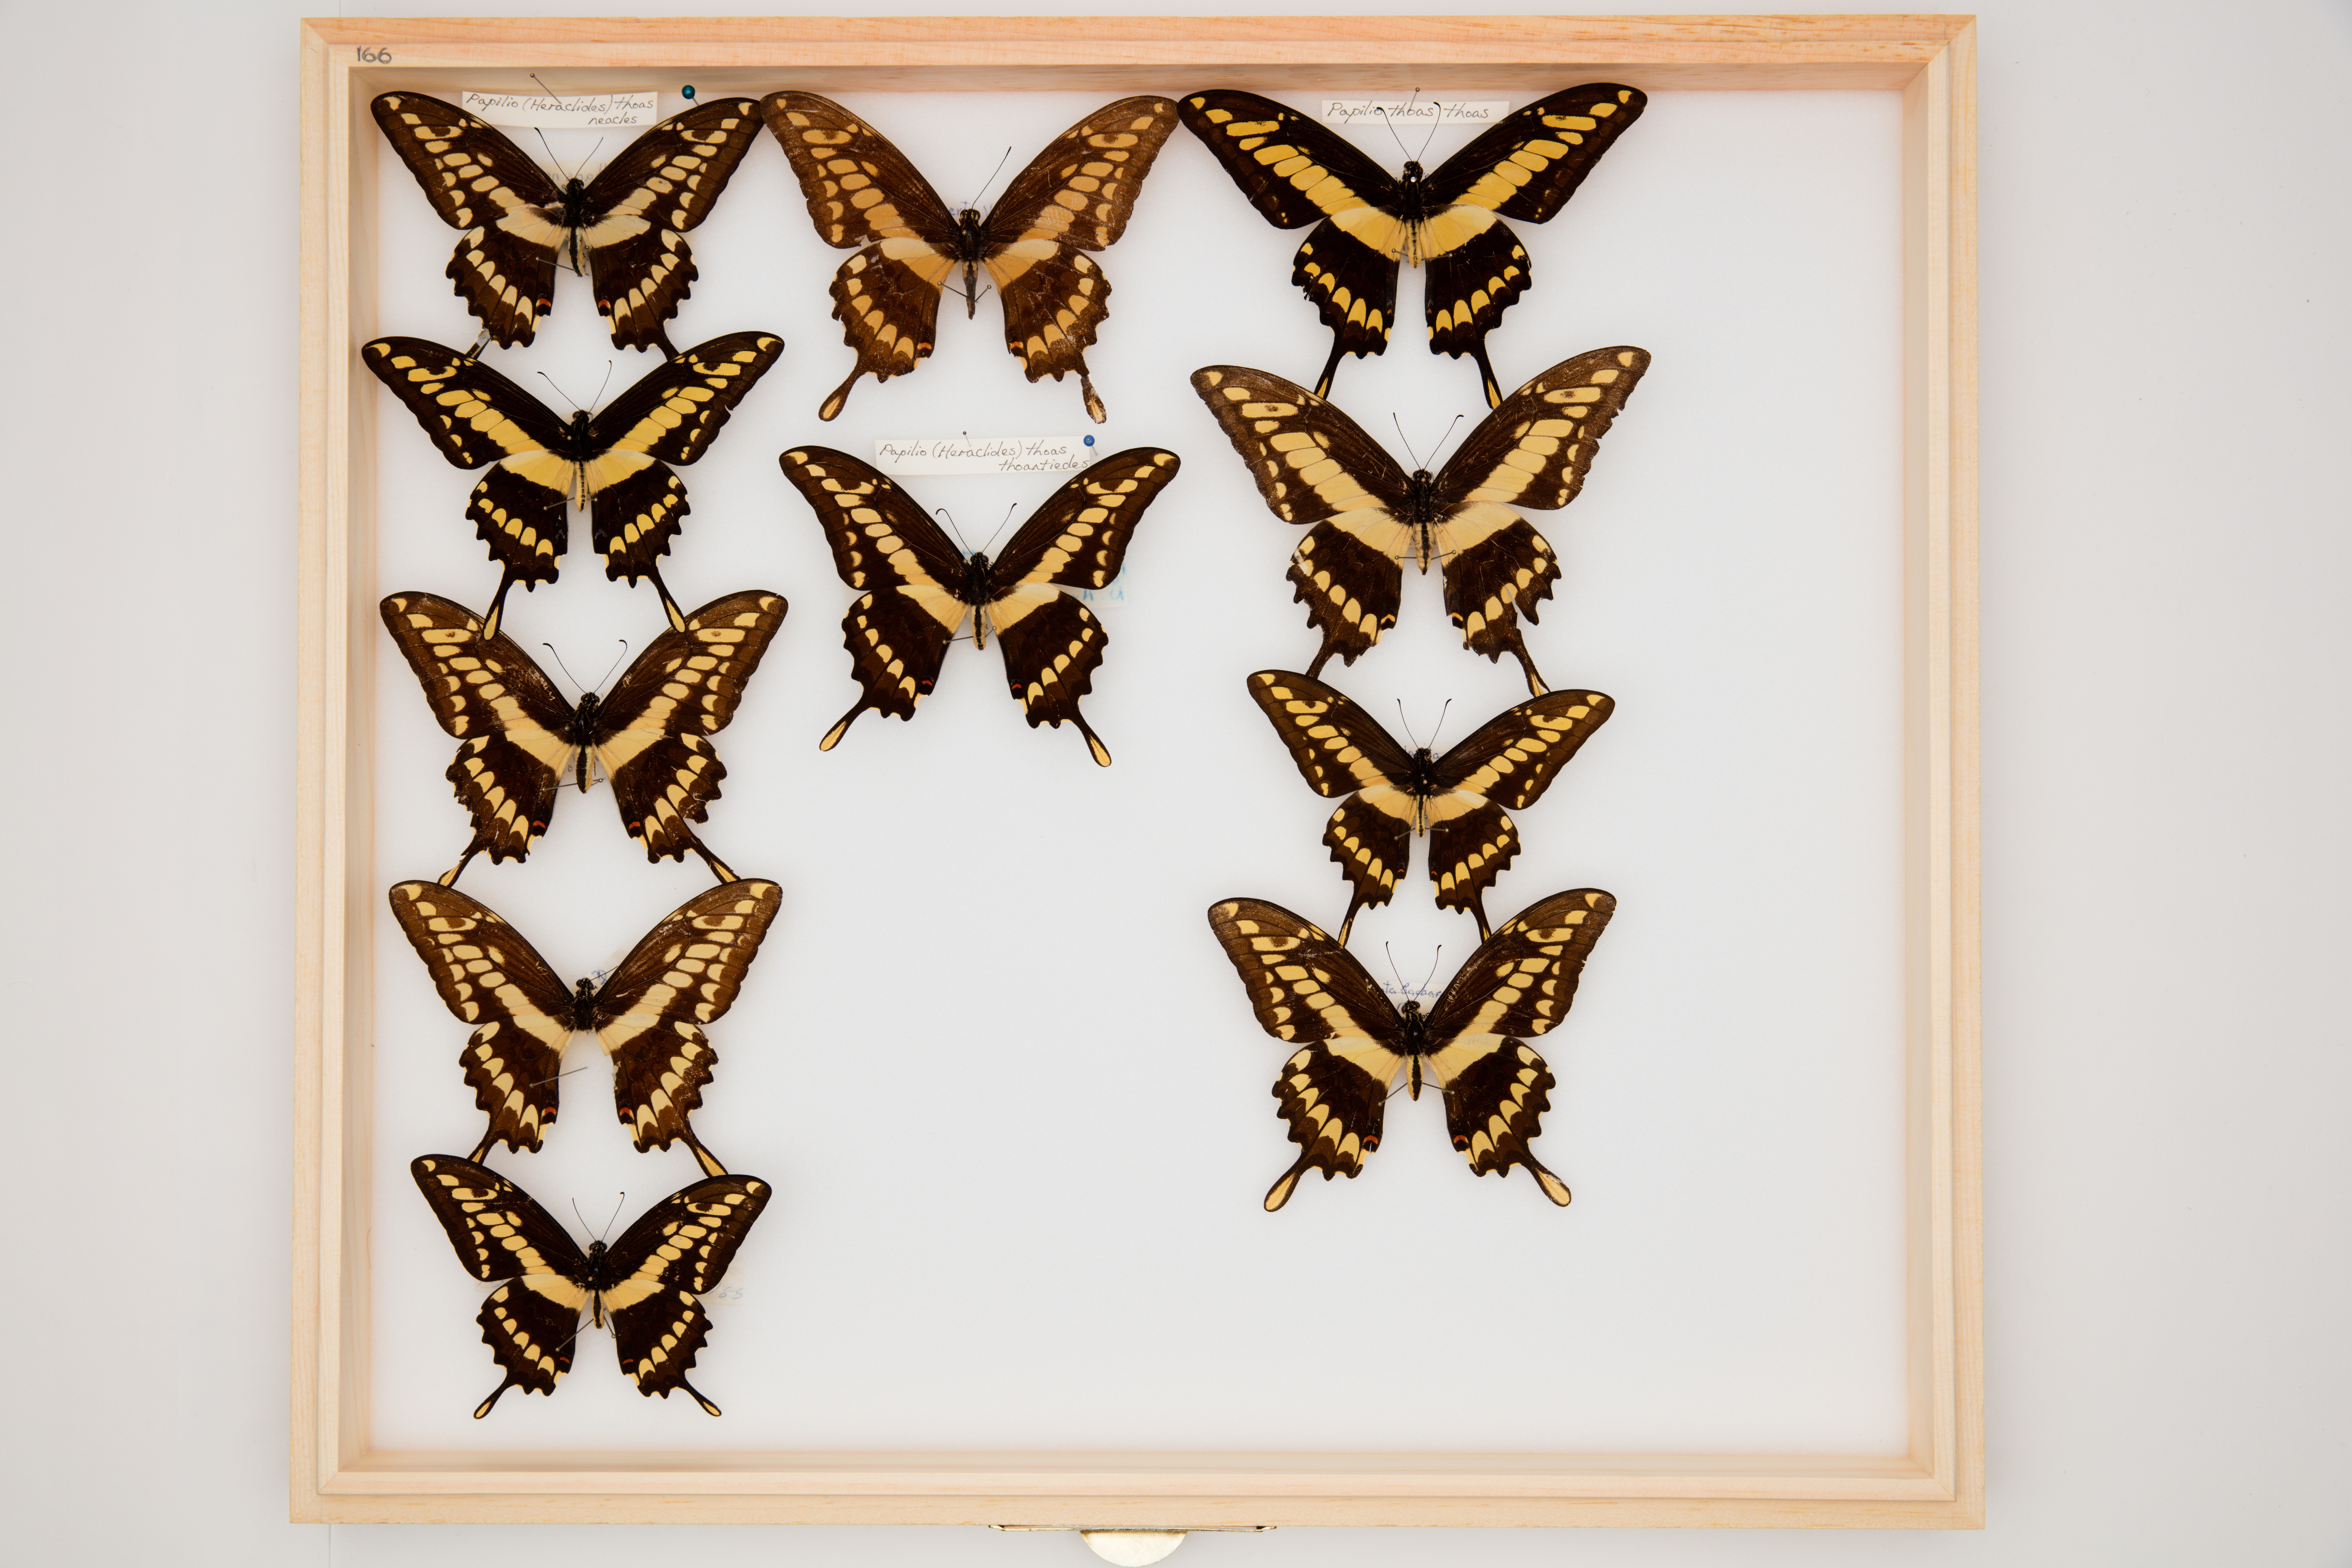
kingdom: Animalia
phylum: Arthropoda
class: Insecta
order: Lepidoptera
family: Papilionidae
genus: Papilio
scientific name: Papilio thoas
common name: King swallowtail
